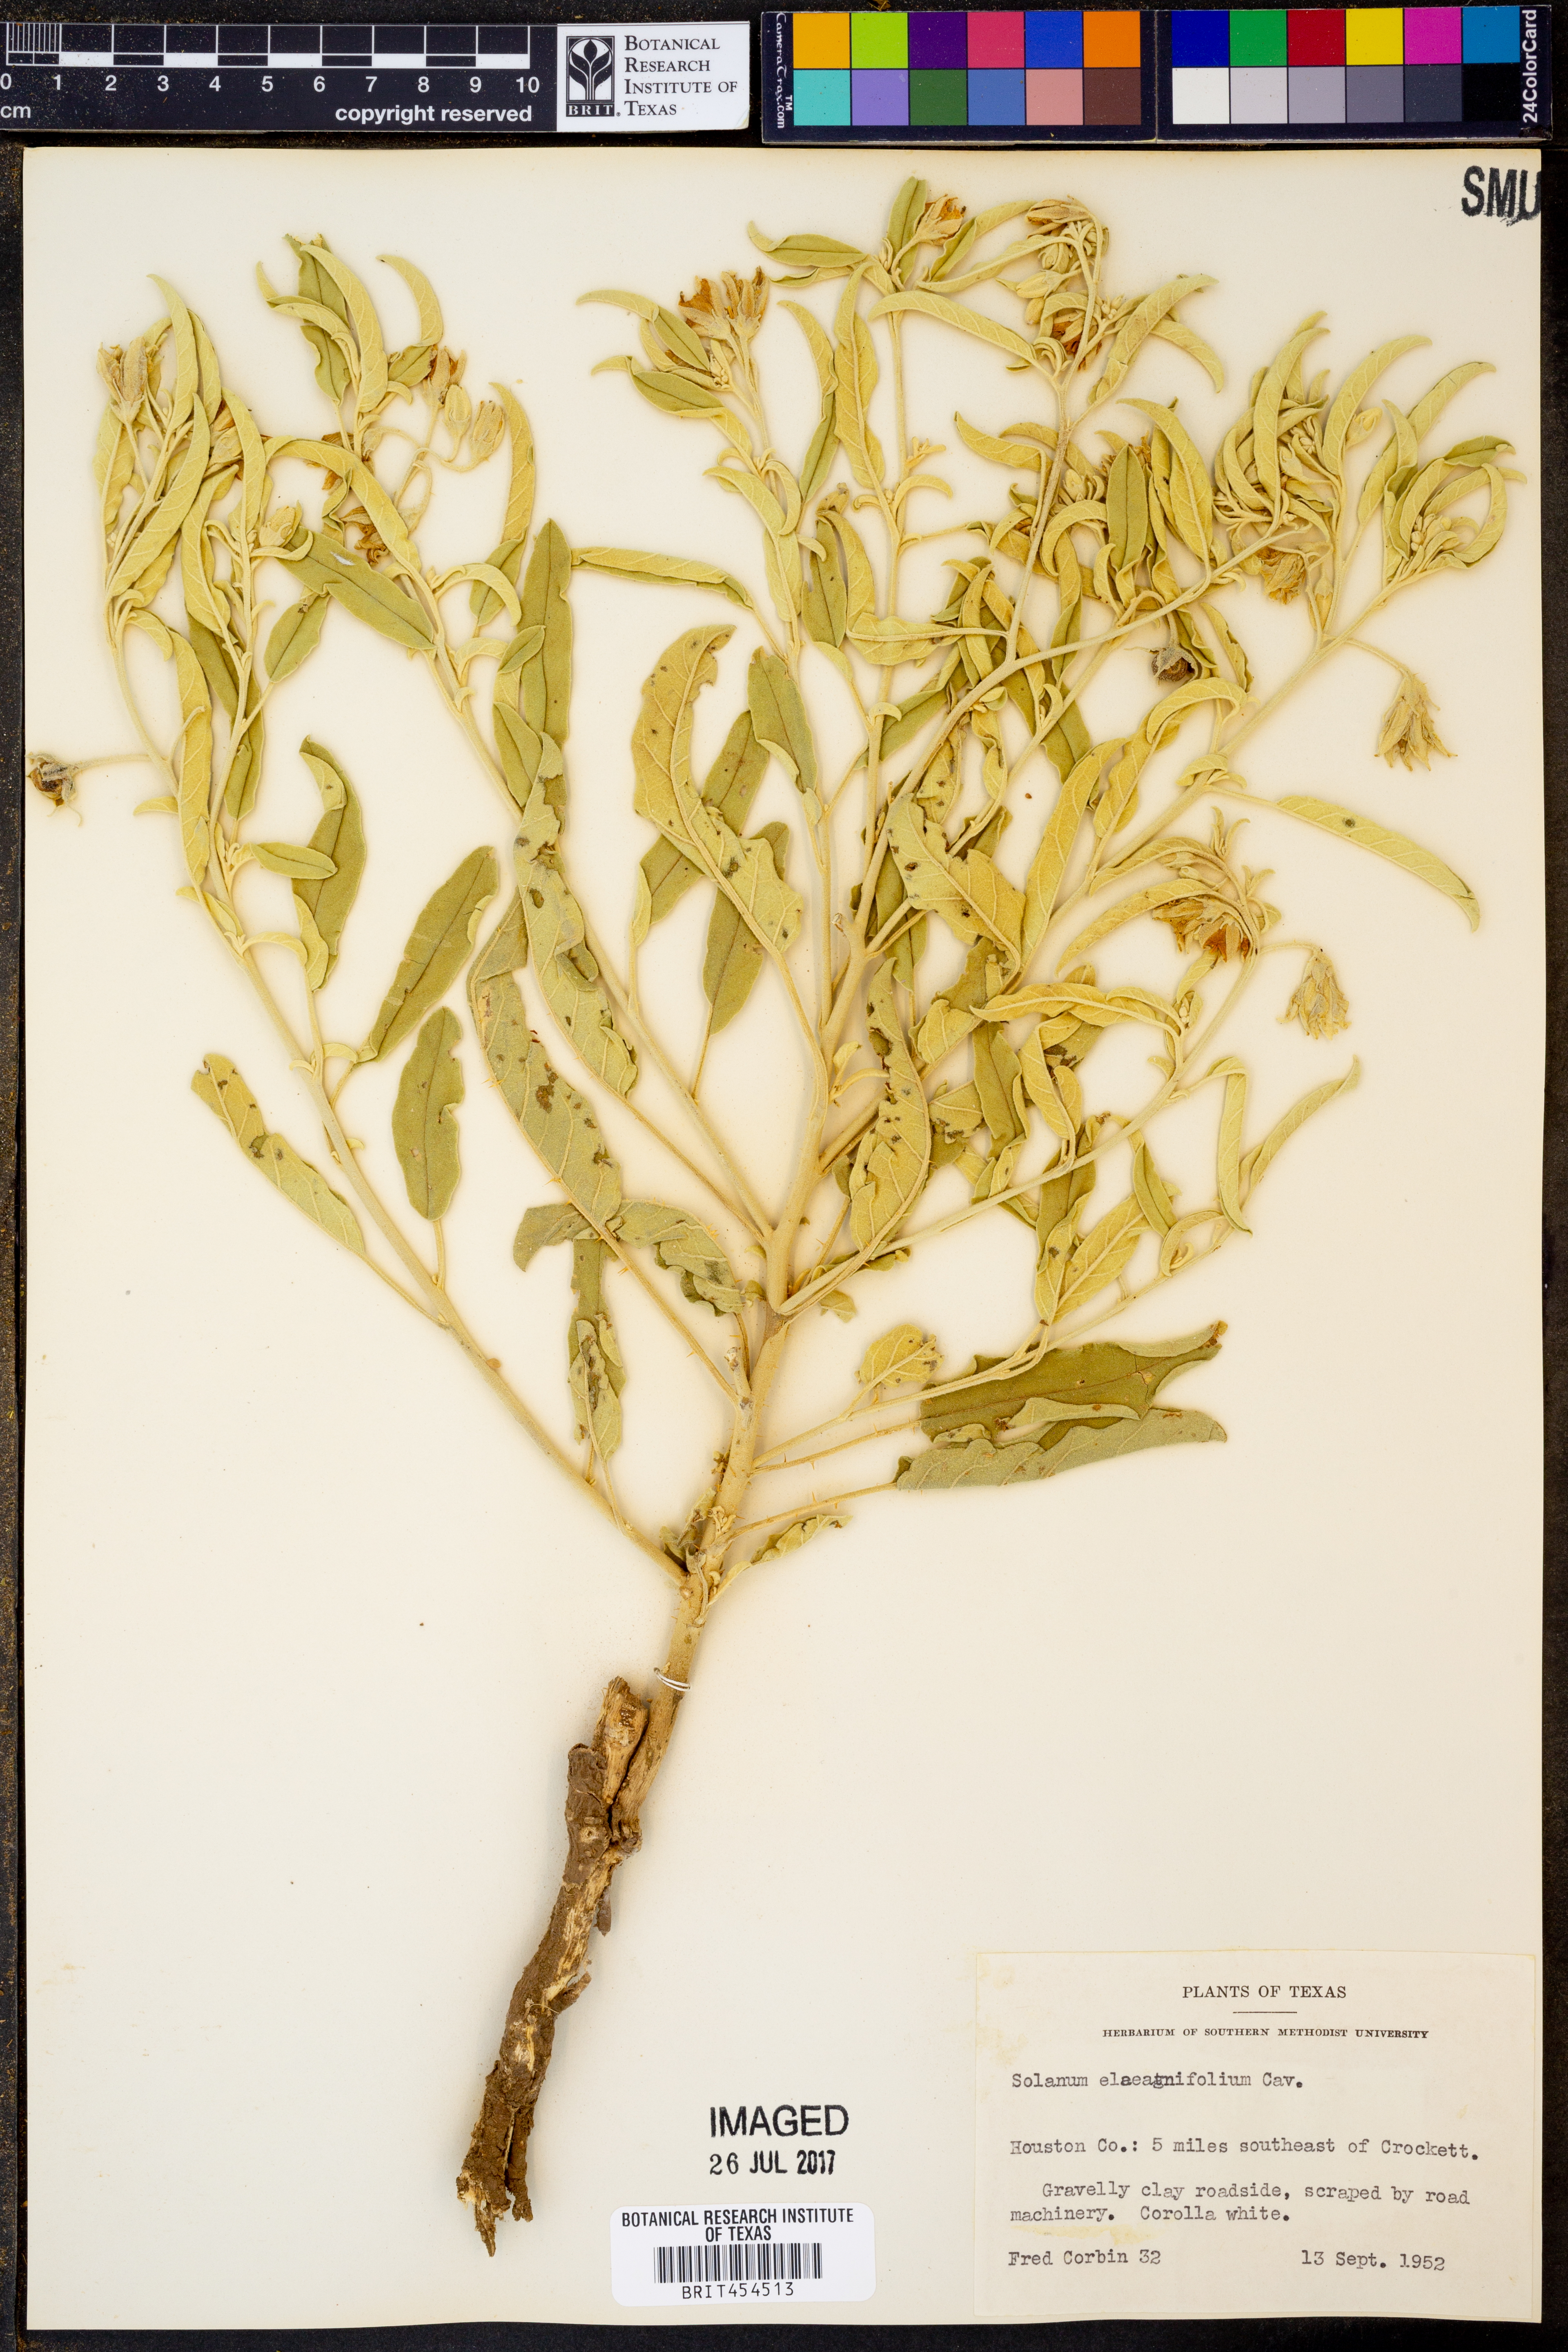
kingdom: Plantae
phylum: Tracheophyta
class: Magnoliopsida
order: Solanales
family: Solanaceae
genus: Solanum
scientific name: Solanum elaeagnifolium
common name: Silverleaf nightshade
